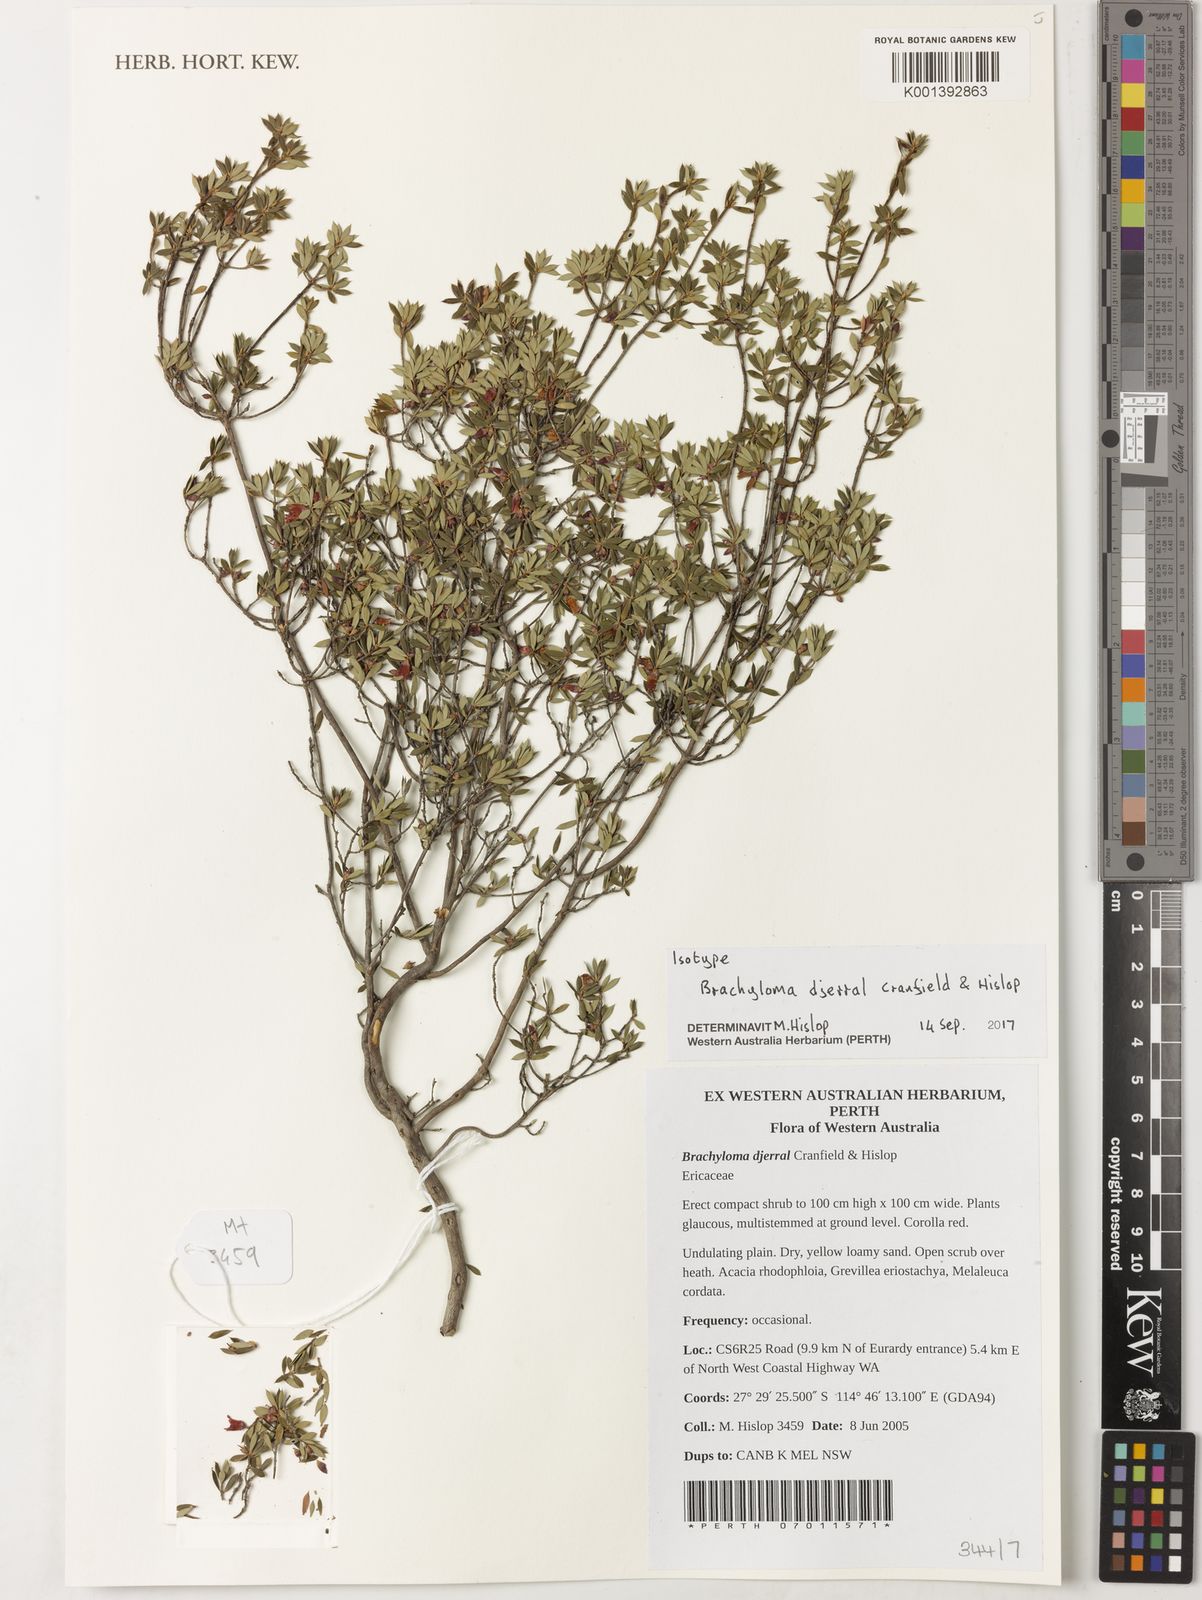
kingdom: Plantae
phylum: Tracheophyta
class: Magnoliopsida
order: Ericales
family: Ericaceae
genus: Brachyloma
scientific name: Brachyloma djerral
